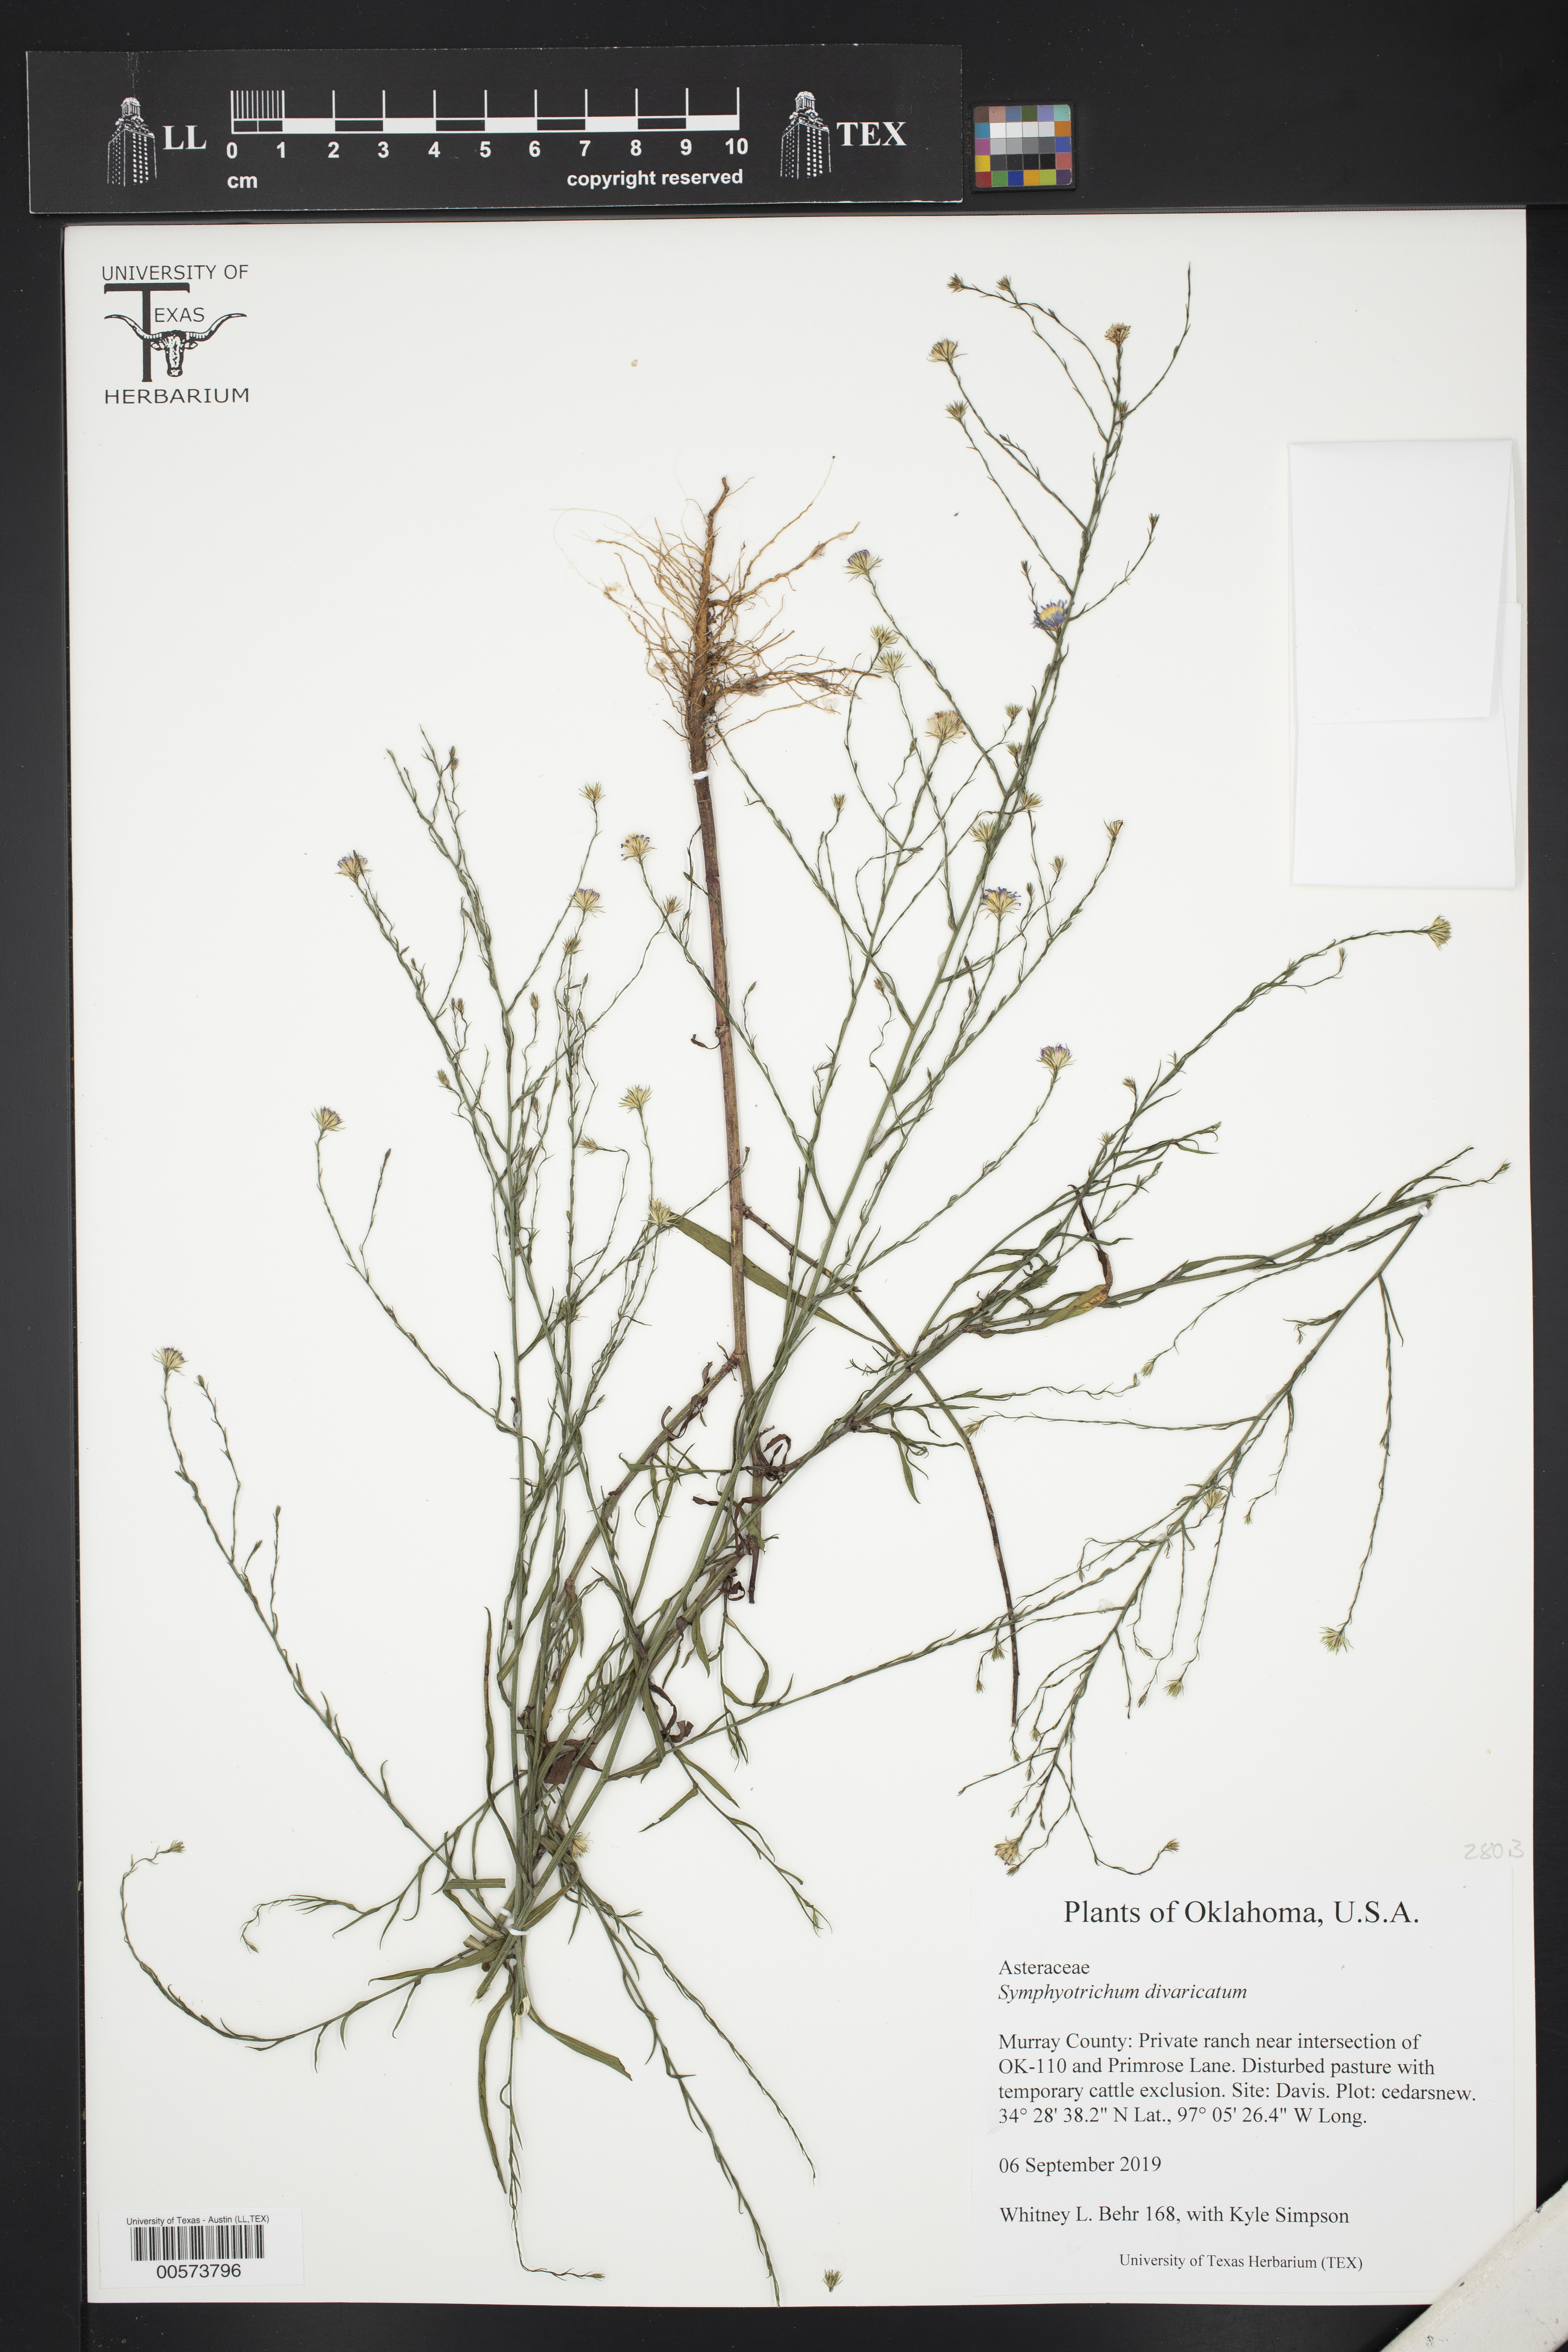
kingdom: Plantae
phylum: Tracheophyta
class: Magnoliopsida
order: Asterales
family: Asteraceae
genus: Symphyotrichum
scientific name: Symphyotrichum divaricatum
